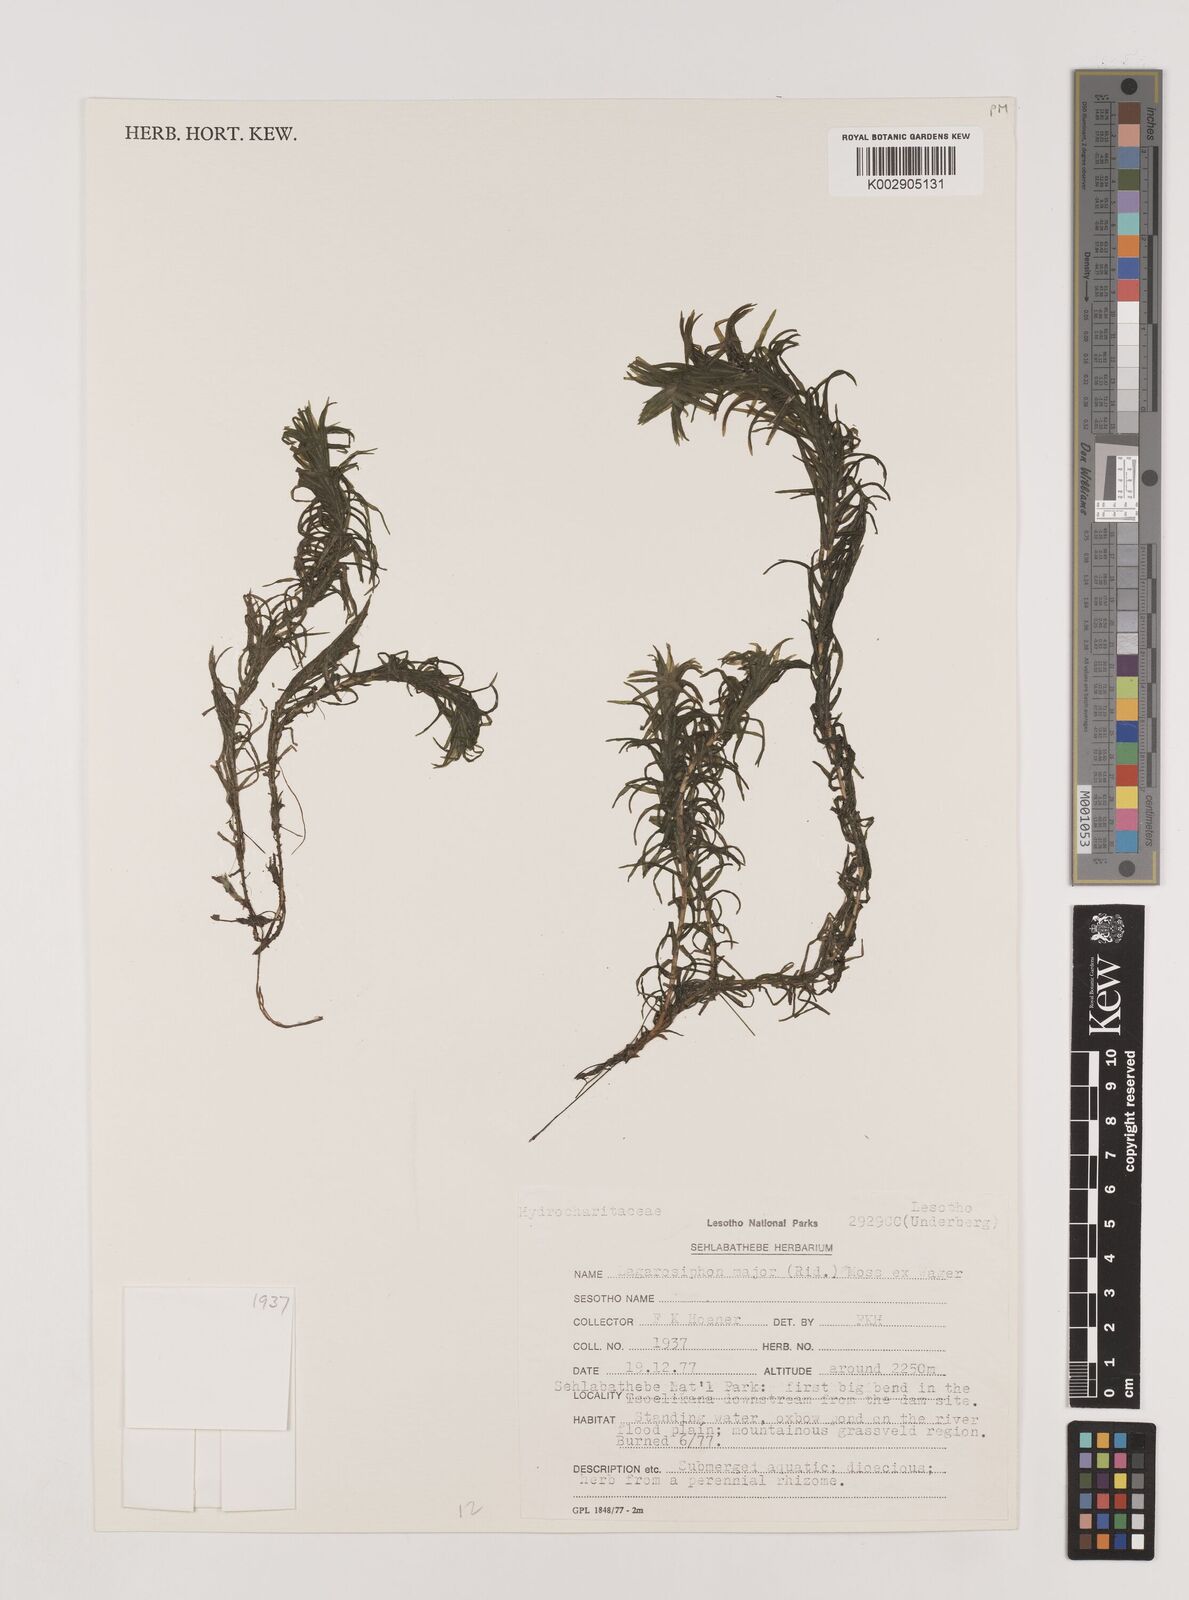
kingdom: Plantae
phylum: Tracheophyta
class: Liliopsida
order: Alismatales
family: Hydrocharitaceae
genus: Lagarosiphon
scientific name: Lagarosiphon major
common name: Curly waterweed
